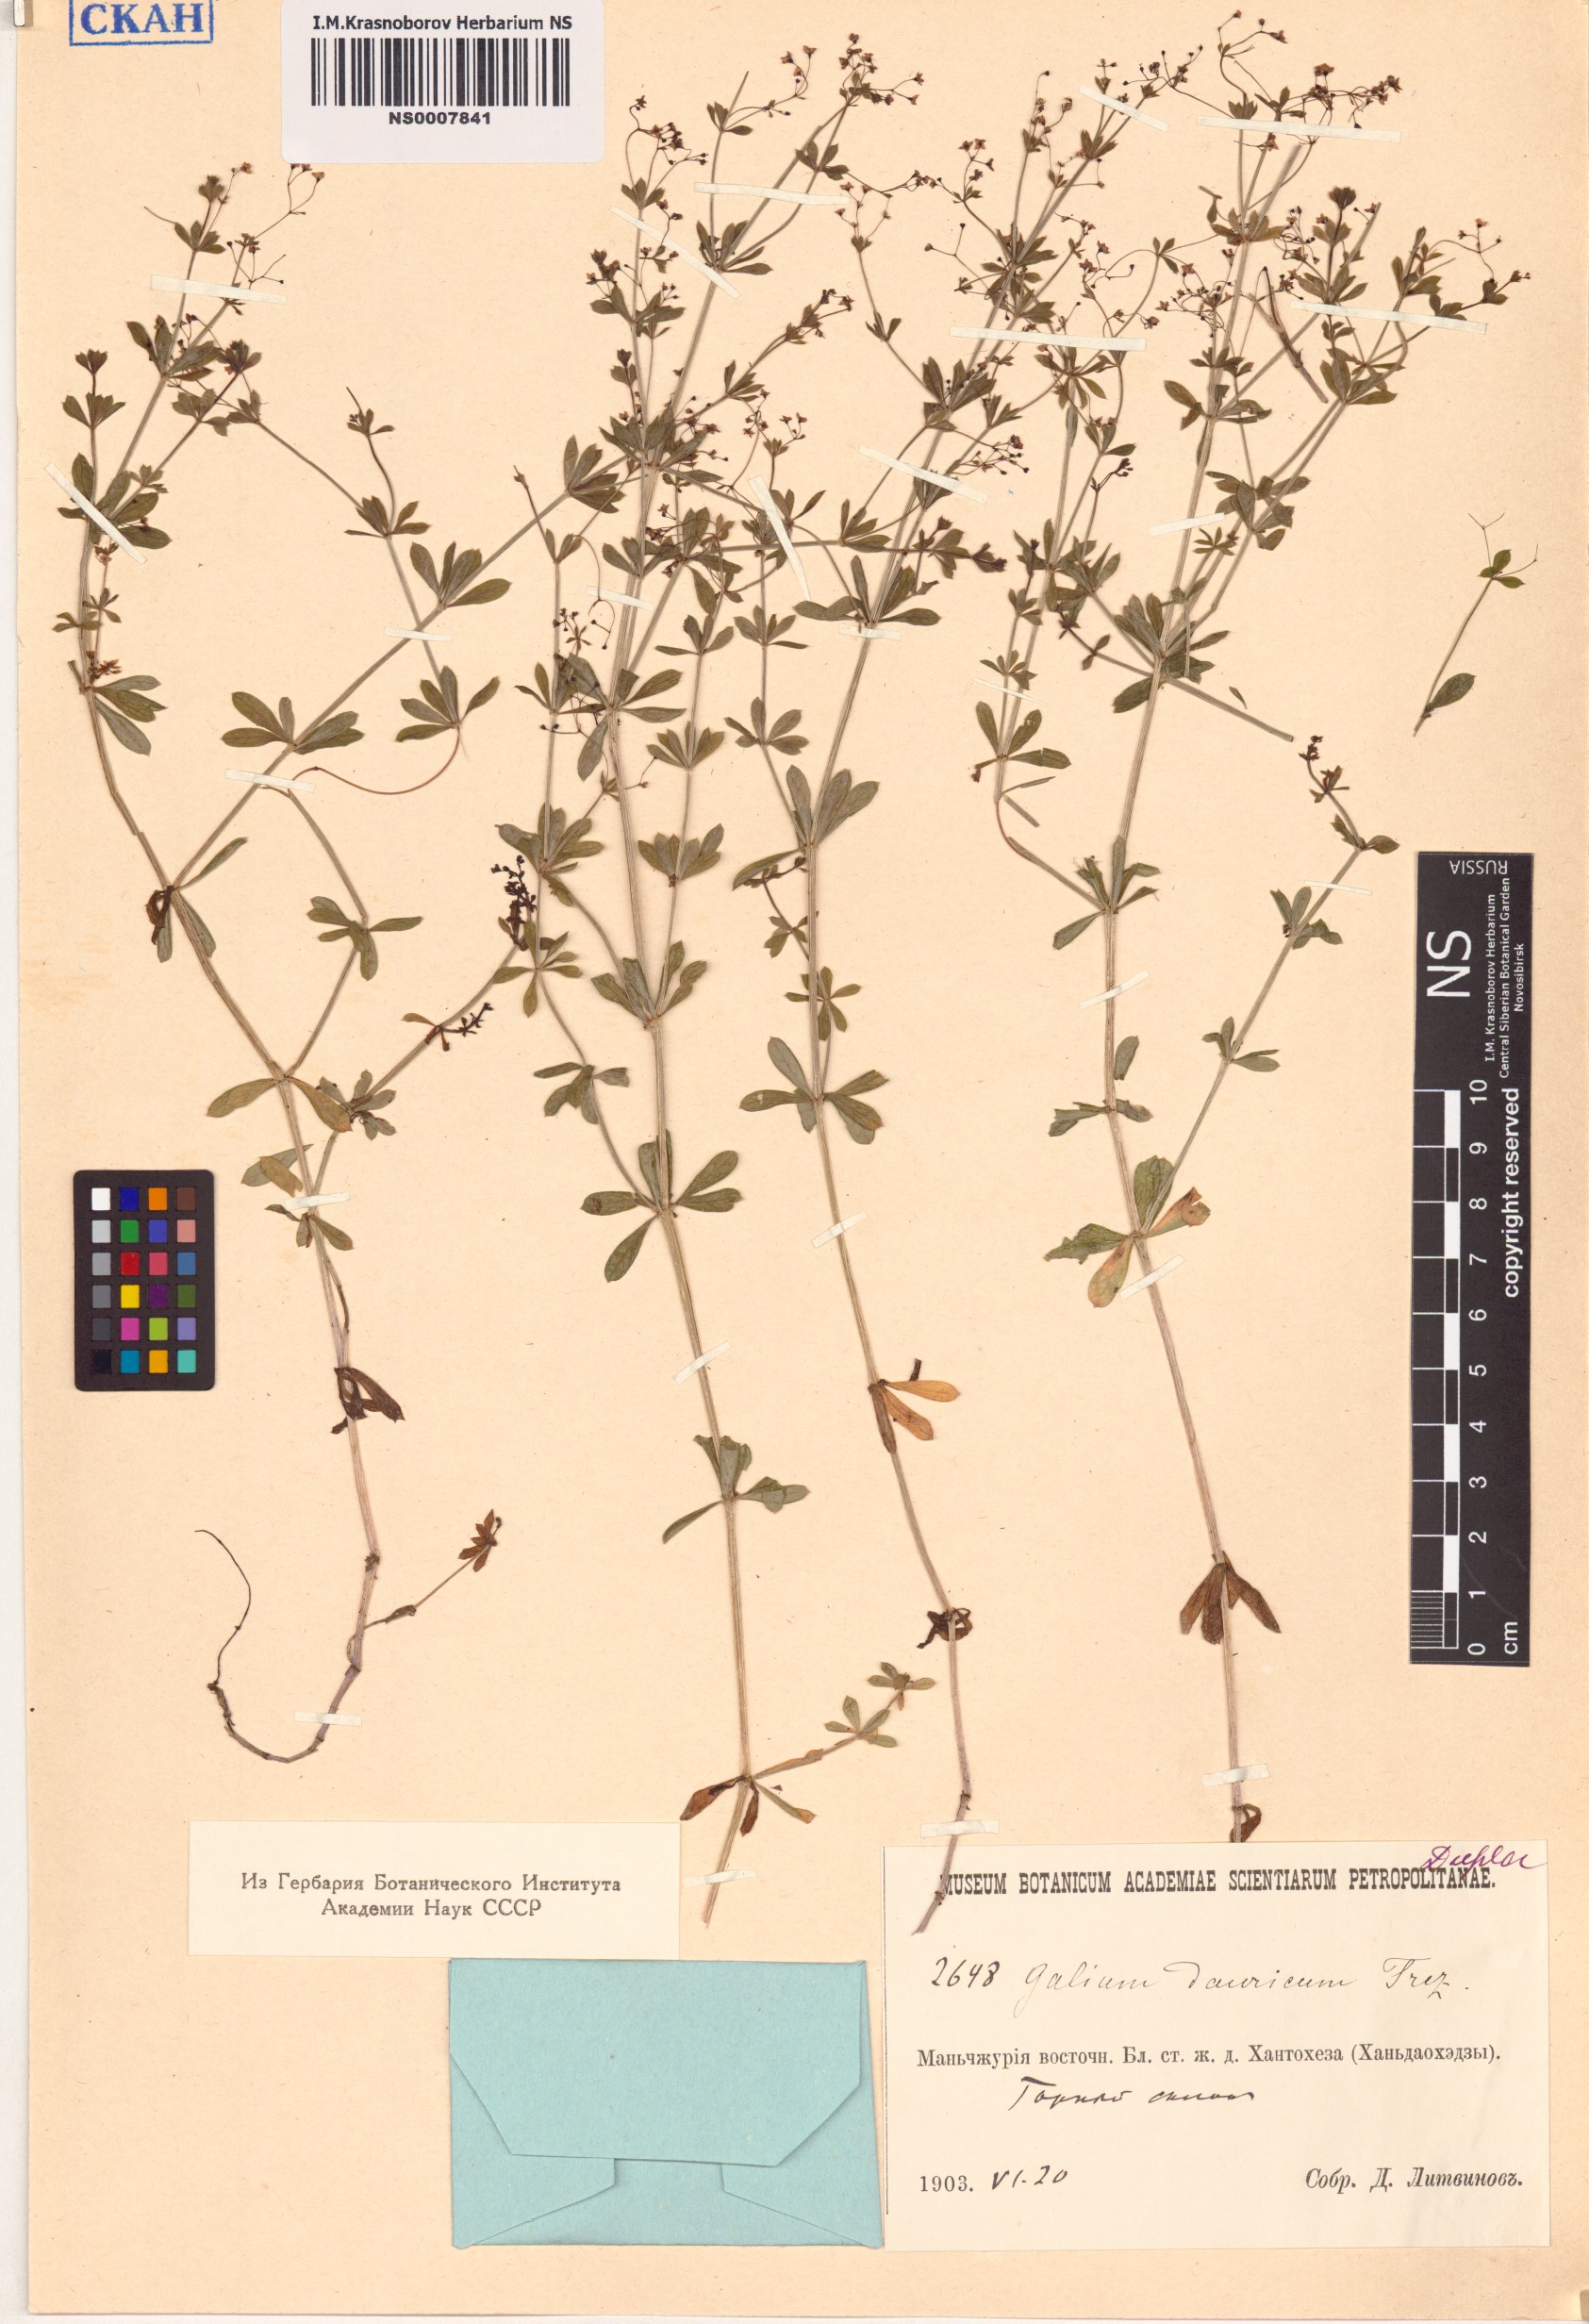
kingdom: Plantae
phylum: Tracheophyta
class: Magnoliopsida
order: Gentianales
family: Rubiaceae
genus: Galium
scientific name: Galium dahuricum
